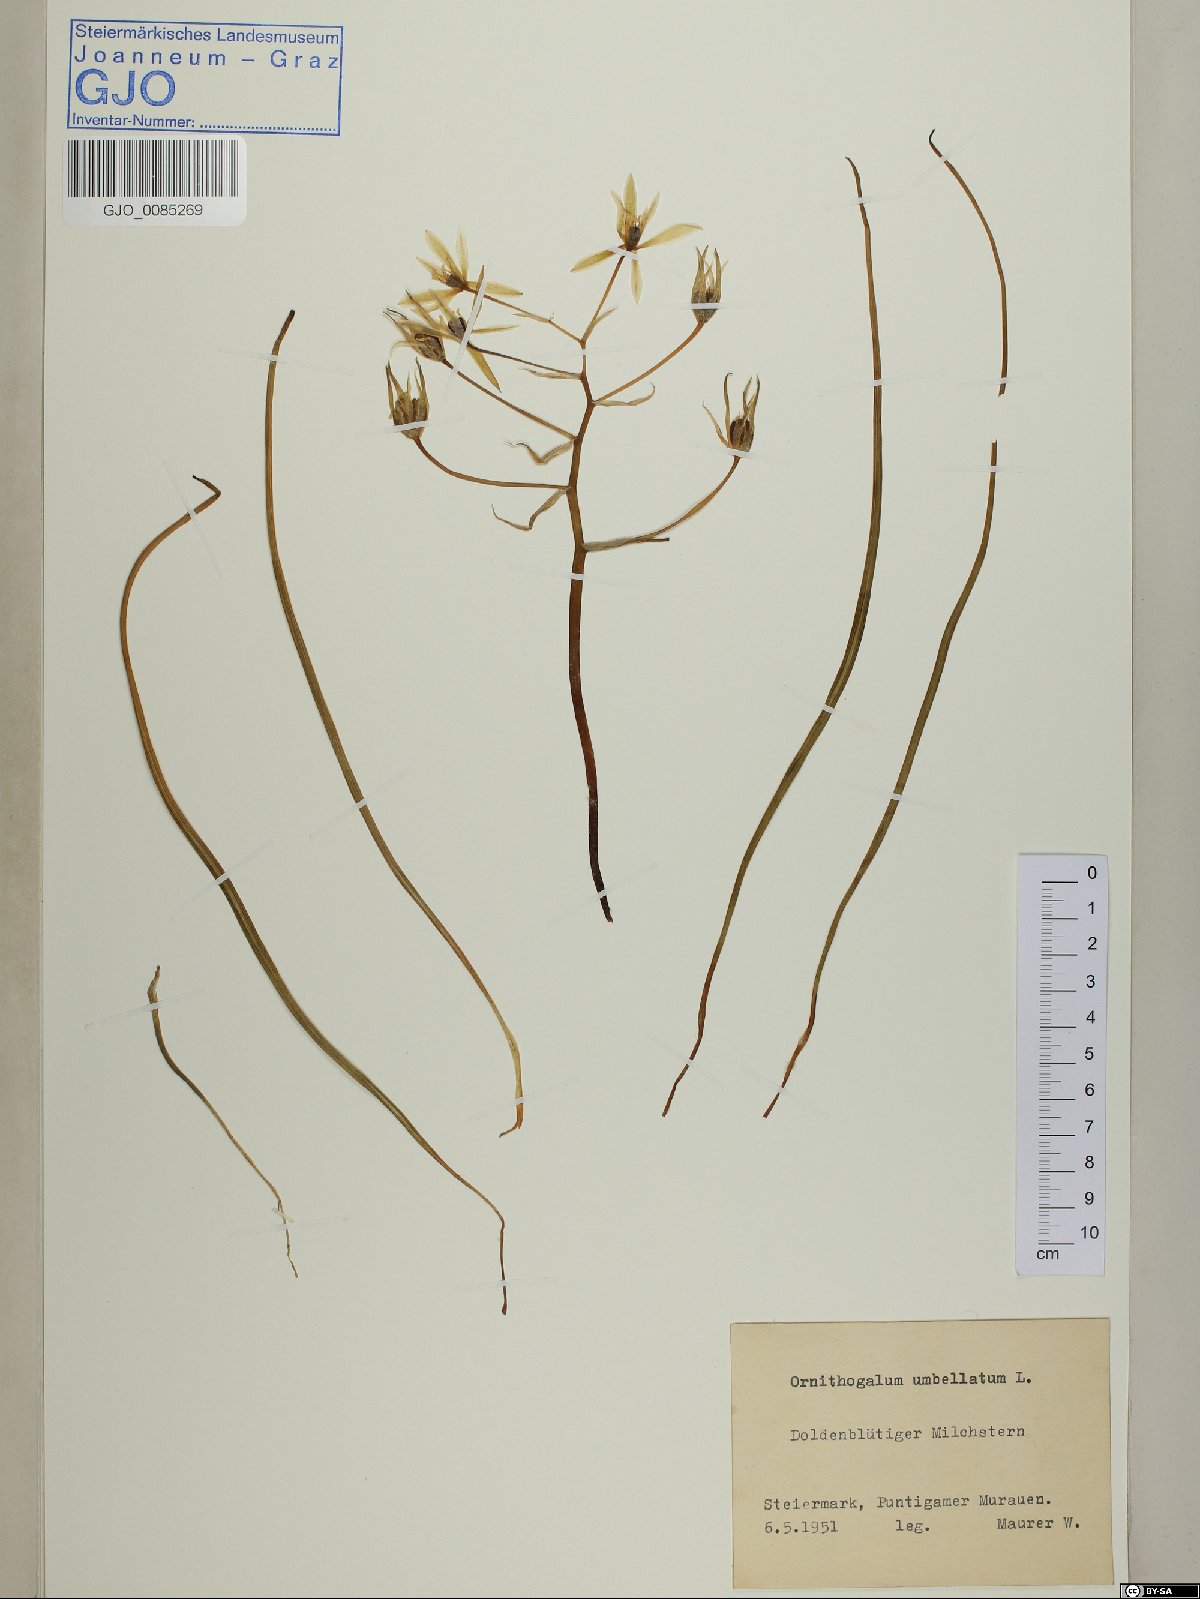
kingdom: Plantae
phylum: Tracheophyta
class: Liliopsida
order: Asparagales
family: Asparagaceae
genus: Ornithogalum
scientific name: Ornithogalum umbellatum
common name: Garden star-of-bethlehem
